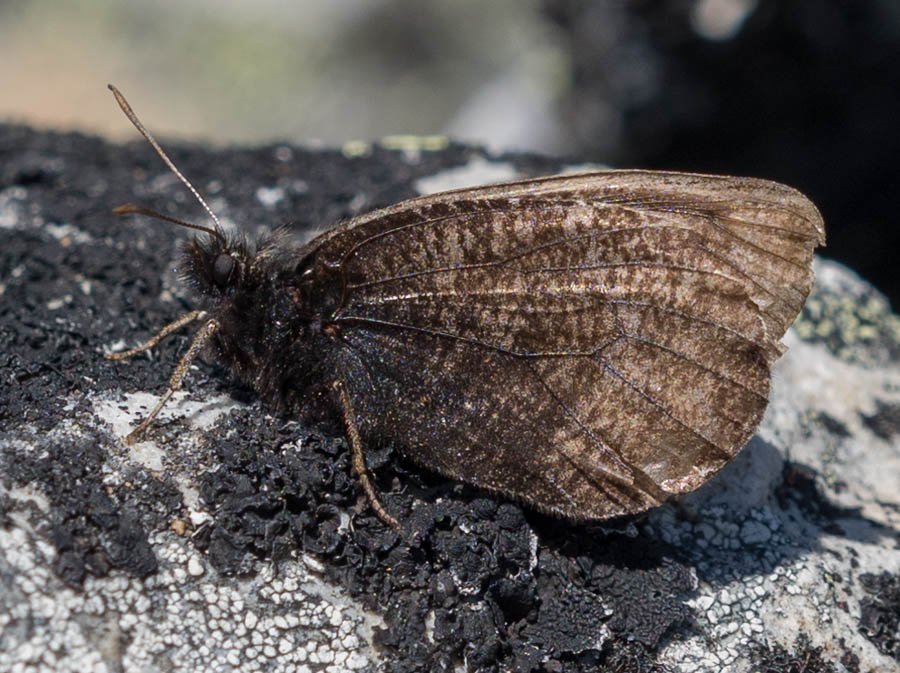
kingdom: Animalia
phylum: Arthropoda
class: Insecta
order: Lepidoptera
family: Nymphalidae
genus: Oeneis
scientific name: Oeneis melissa
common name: Melissa Arctic
